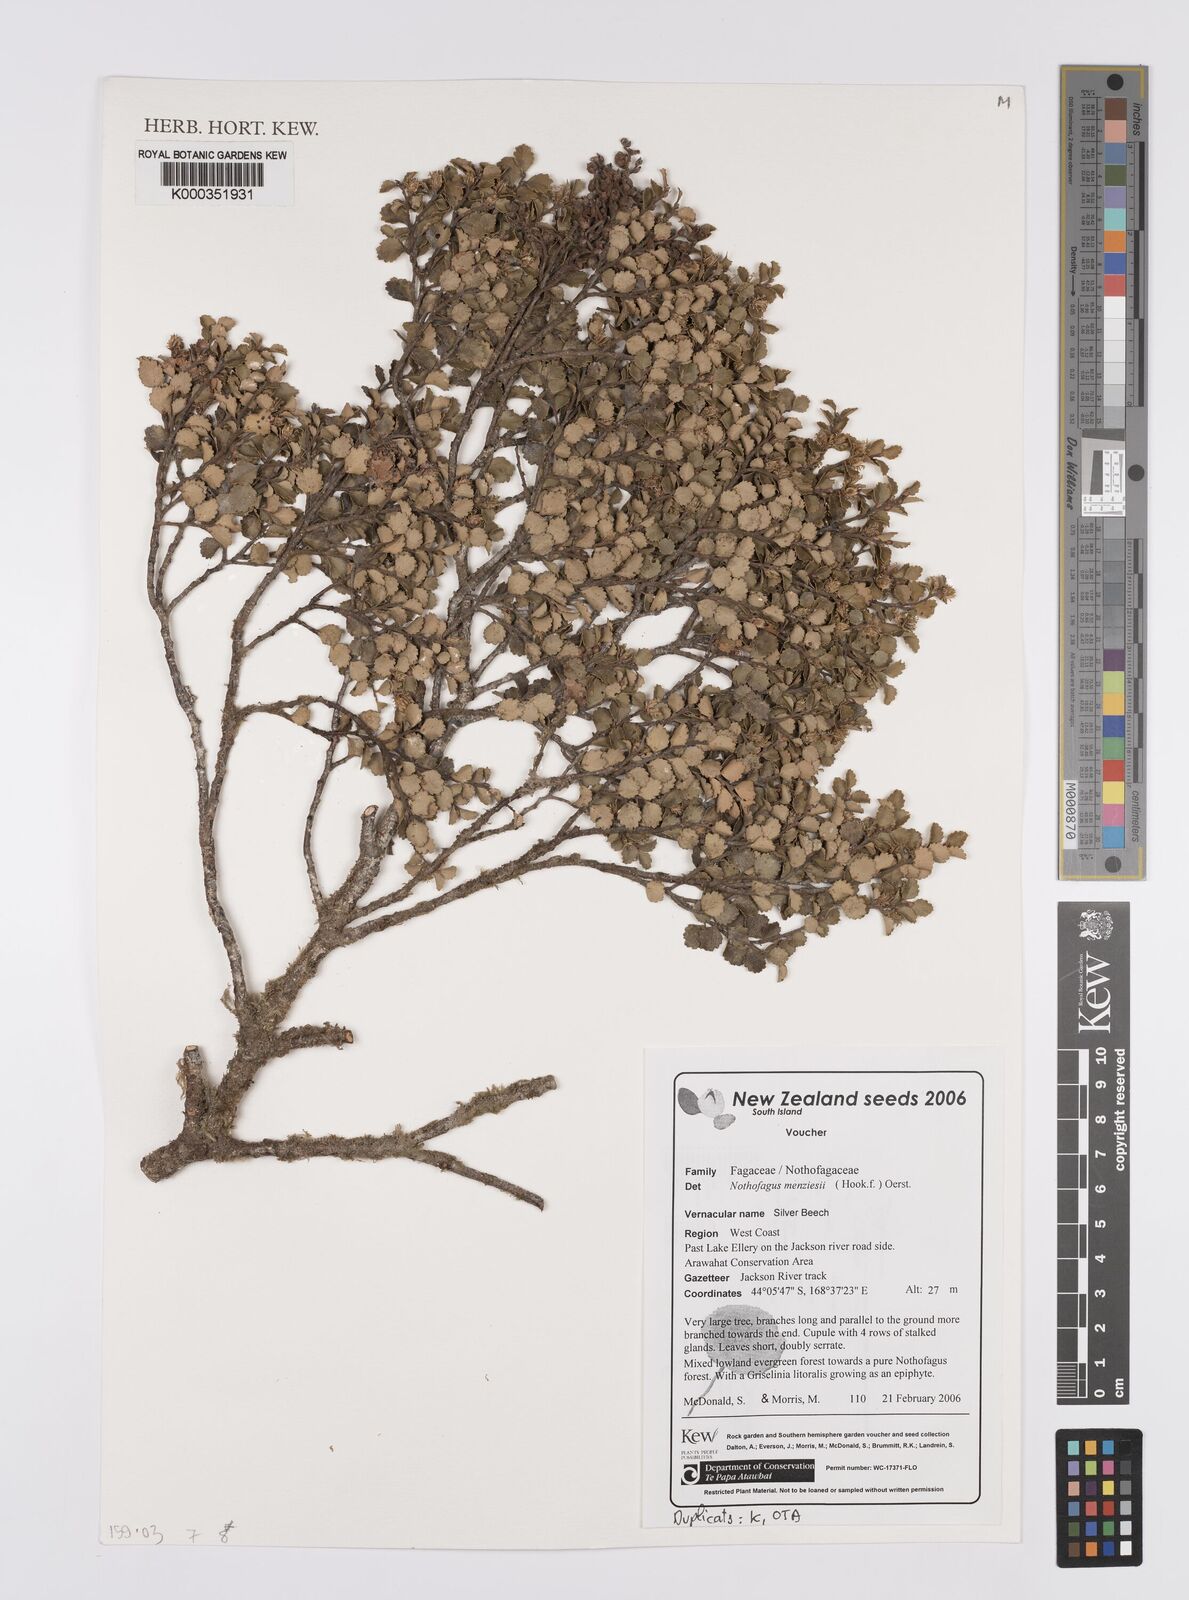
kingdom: Plantae
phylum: Tracheophyta
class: Magnoliopsida
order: Fagales
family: Nothofagaceae
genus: Nothofagus
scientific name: Nothofagus menziesii
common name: Silver beech
